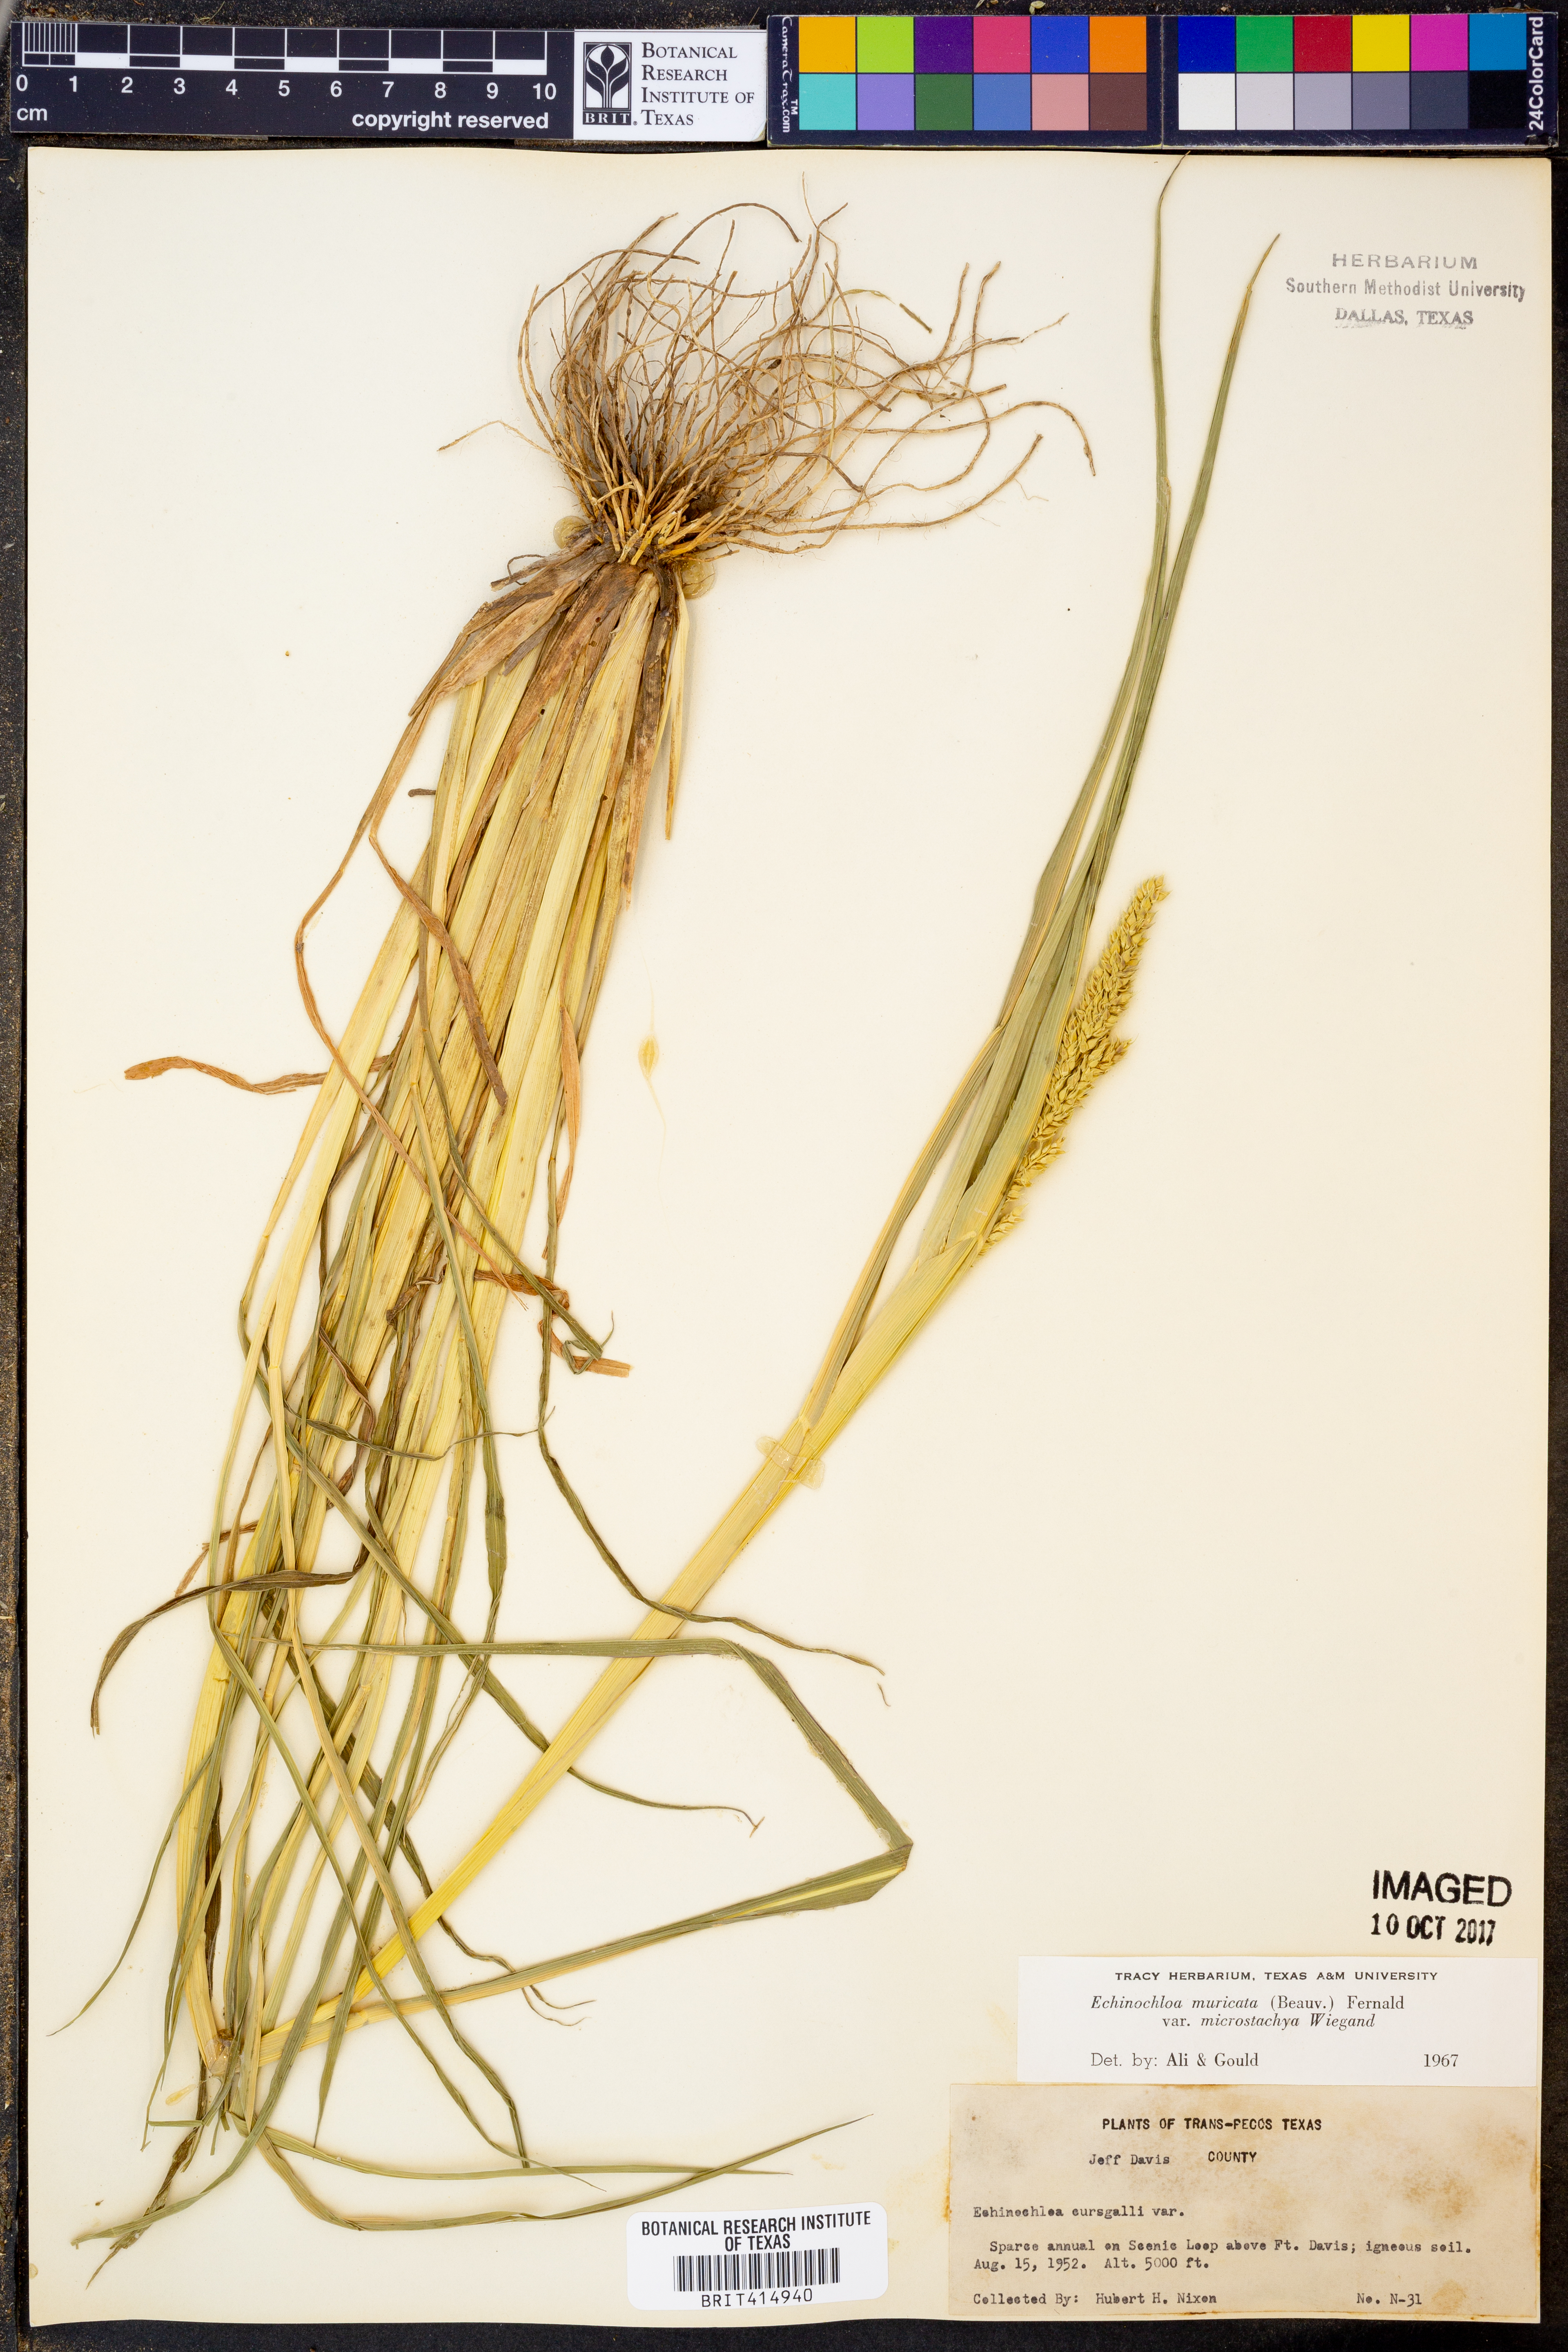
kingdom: Plantae
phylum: Tracheophyta
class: Liliopsida
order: Poales
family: Poaceae
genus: Echinochloa
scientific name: Echinochloa muricata
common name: American barnyard grass
